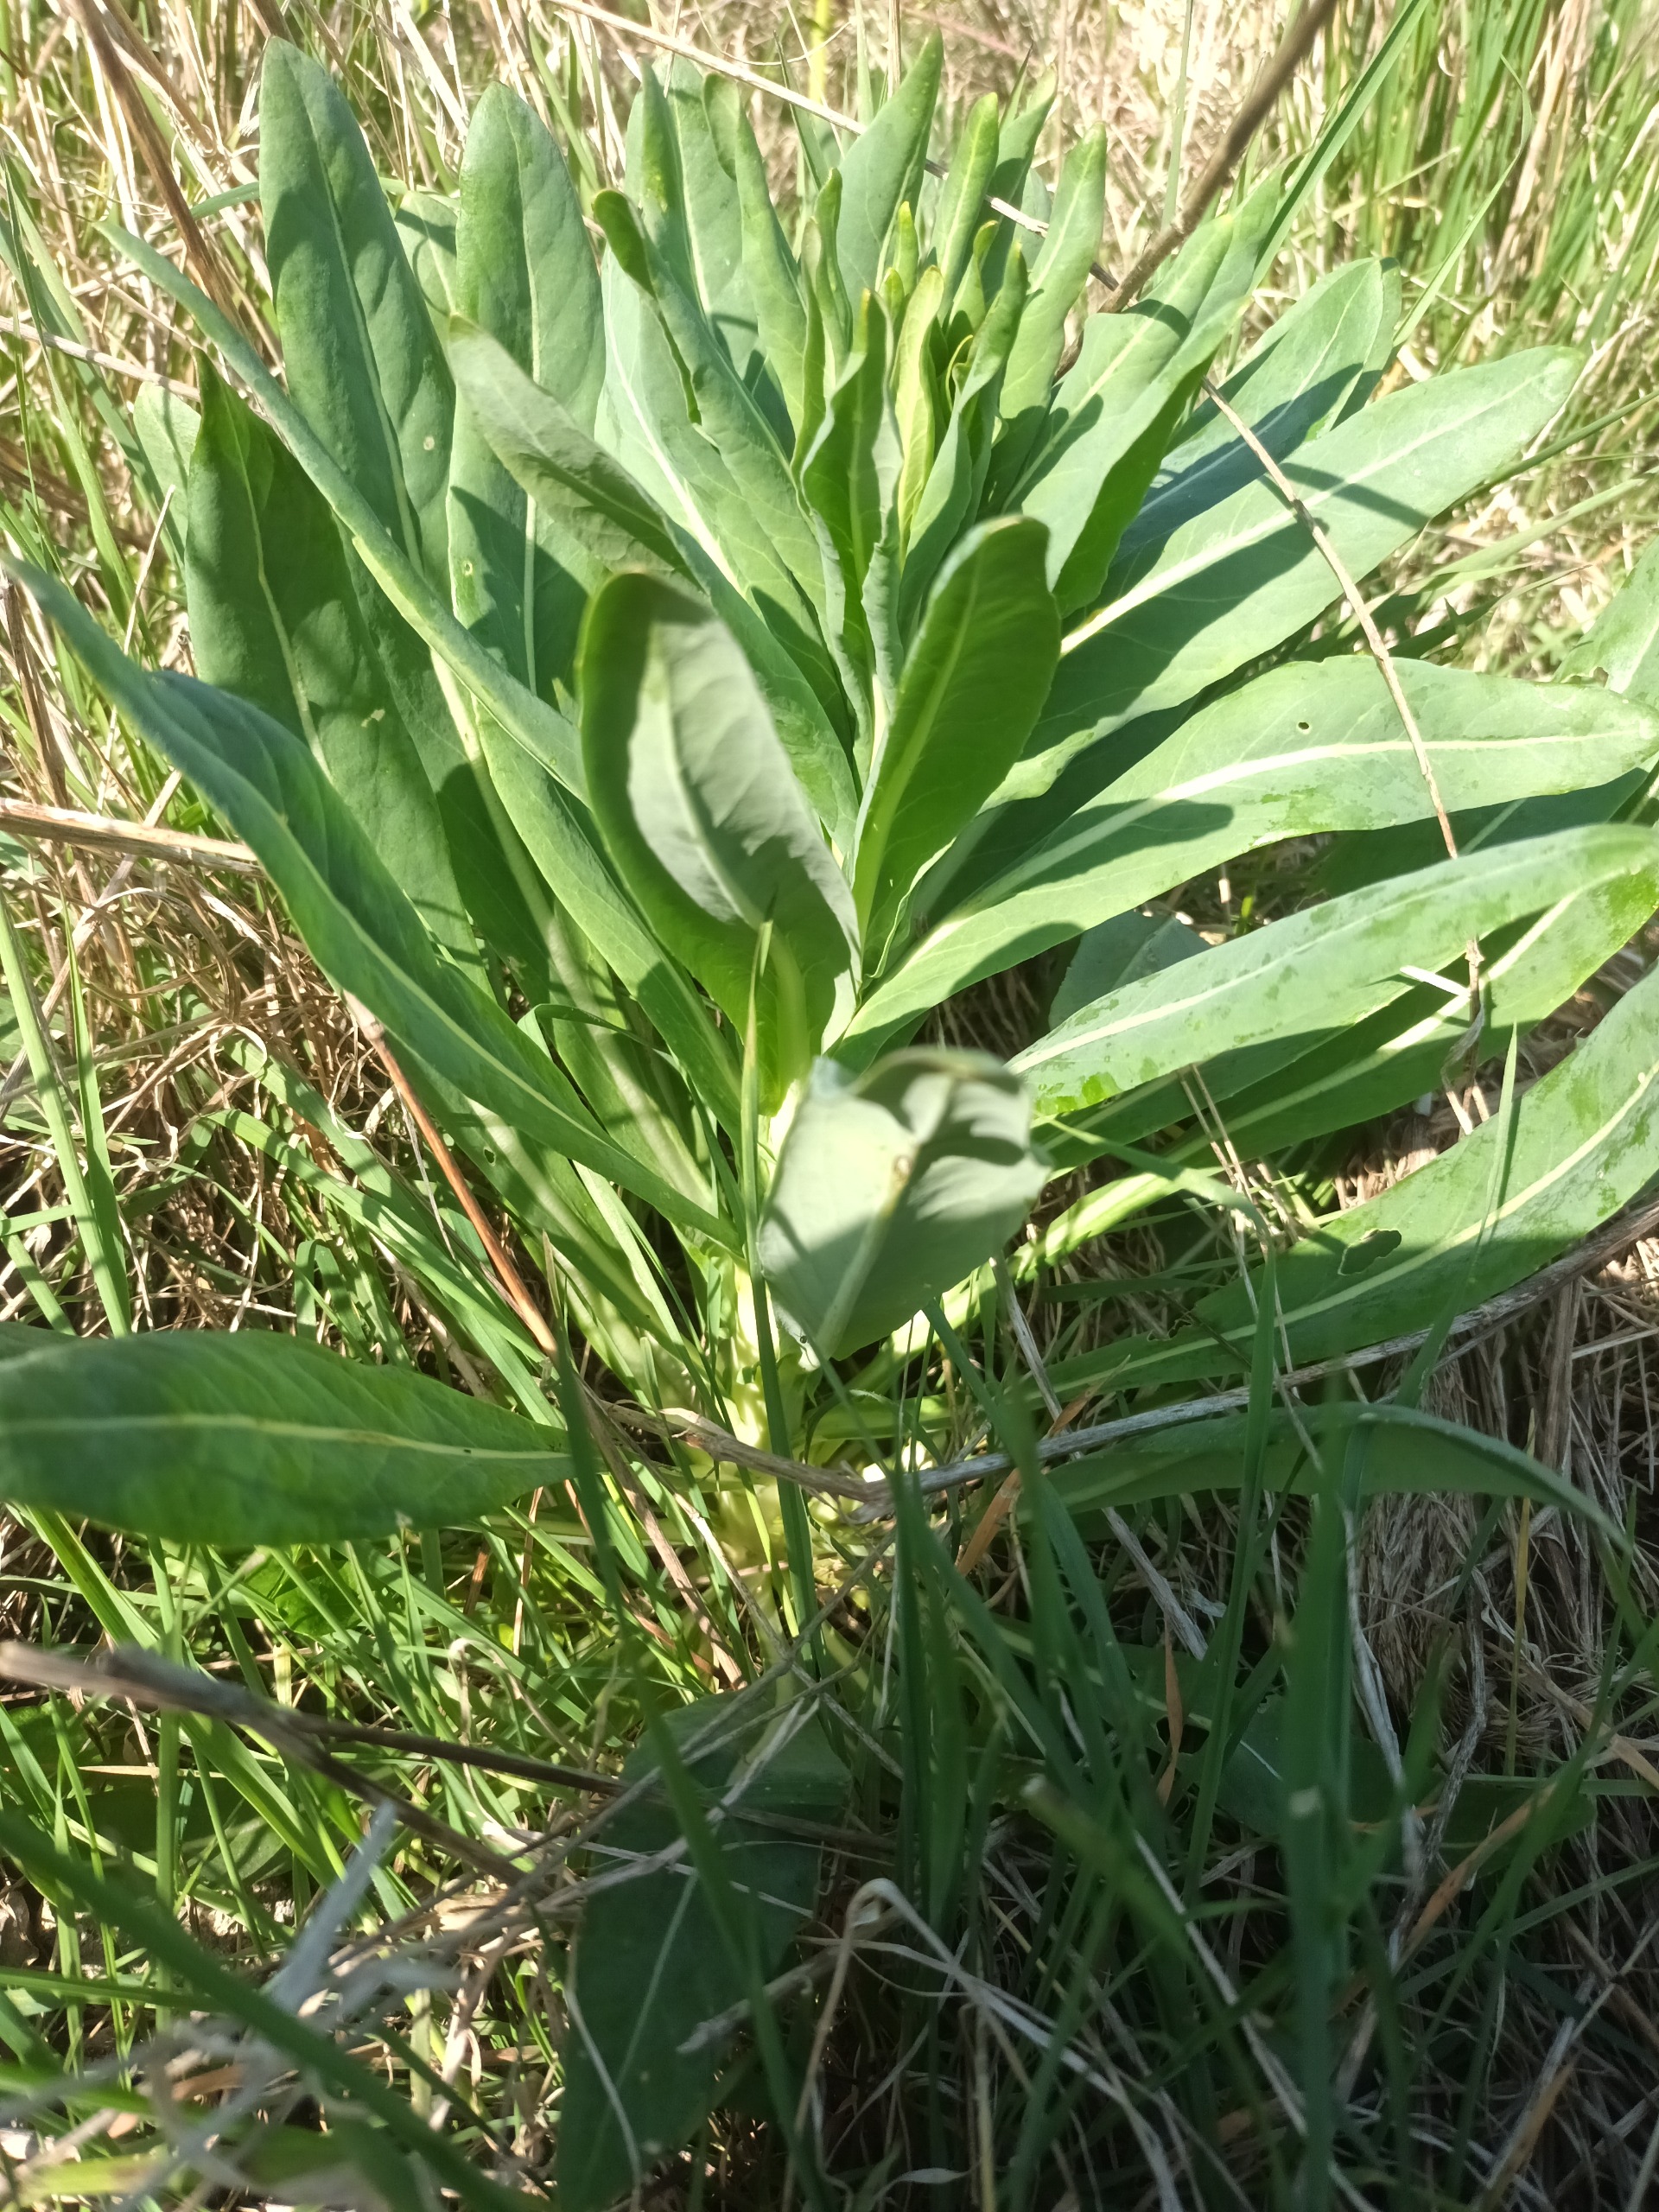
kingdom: Plantae
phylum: Tracheophyta
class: Magnoliopsida
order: Brassicales
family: Brassicaceae
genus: Isatis
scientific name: Isatis tinctoria
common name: Farve-vajd
